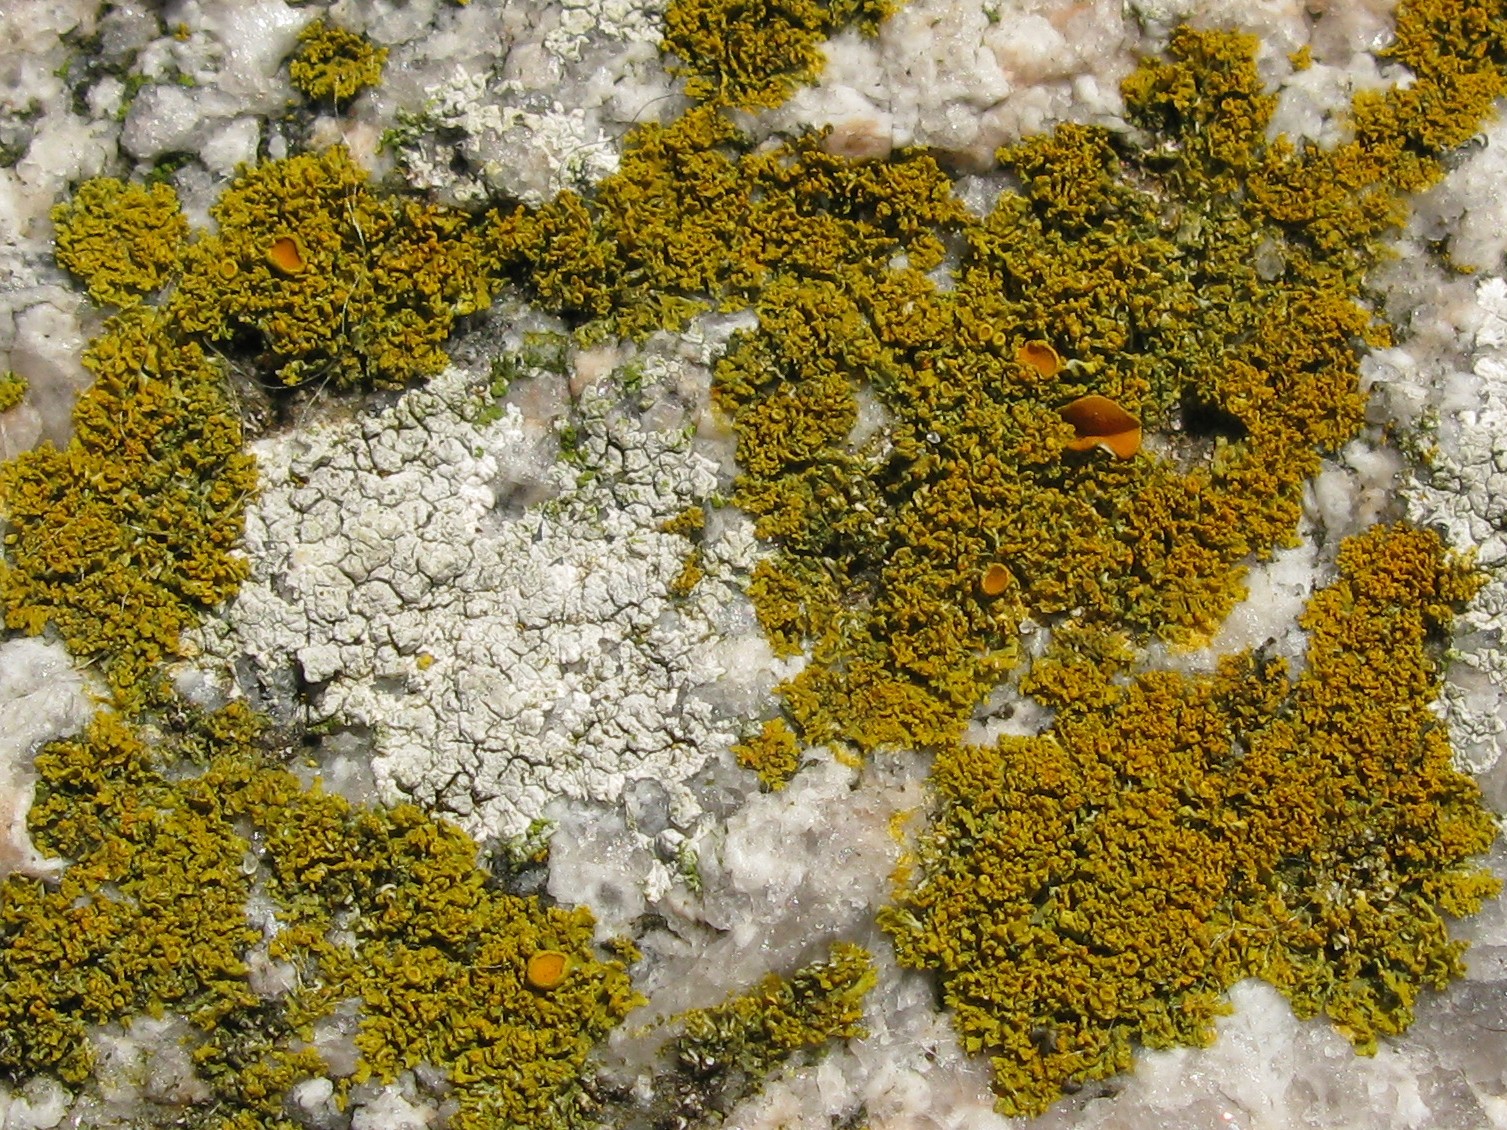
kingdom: Fungi
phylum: Ascomycota
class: Lecanoromycetes
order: Teloschistales
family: Teloschistaceae
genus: Polycauliona
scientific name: Polycauliona candelaria
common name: tue-orangelav
